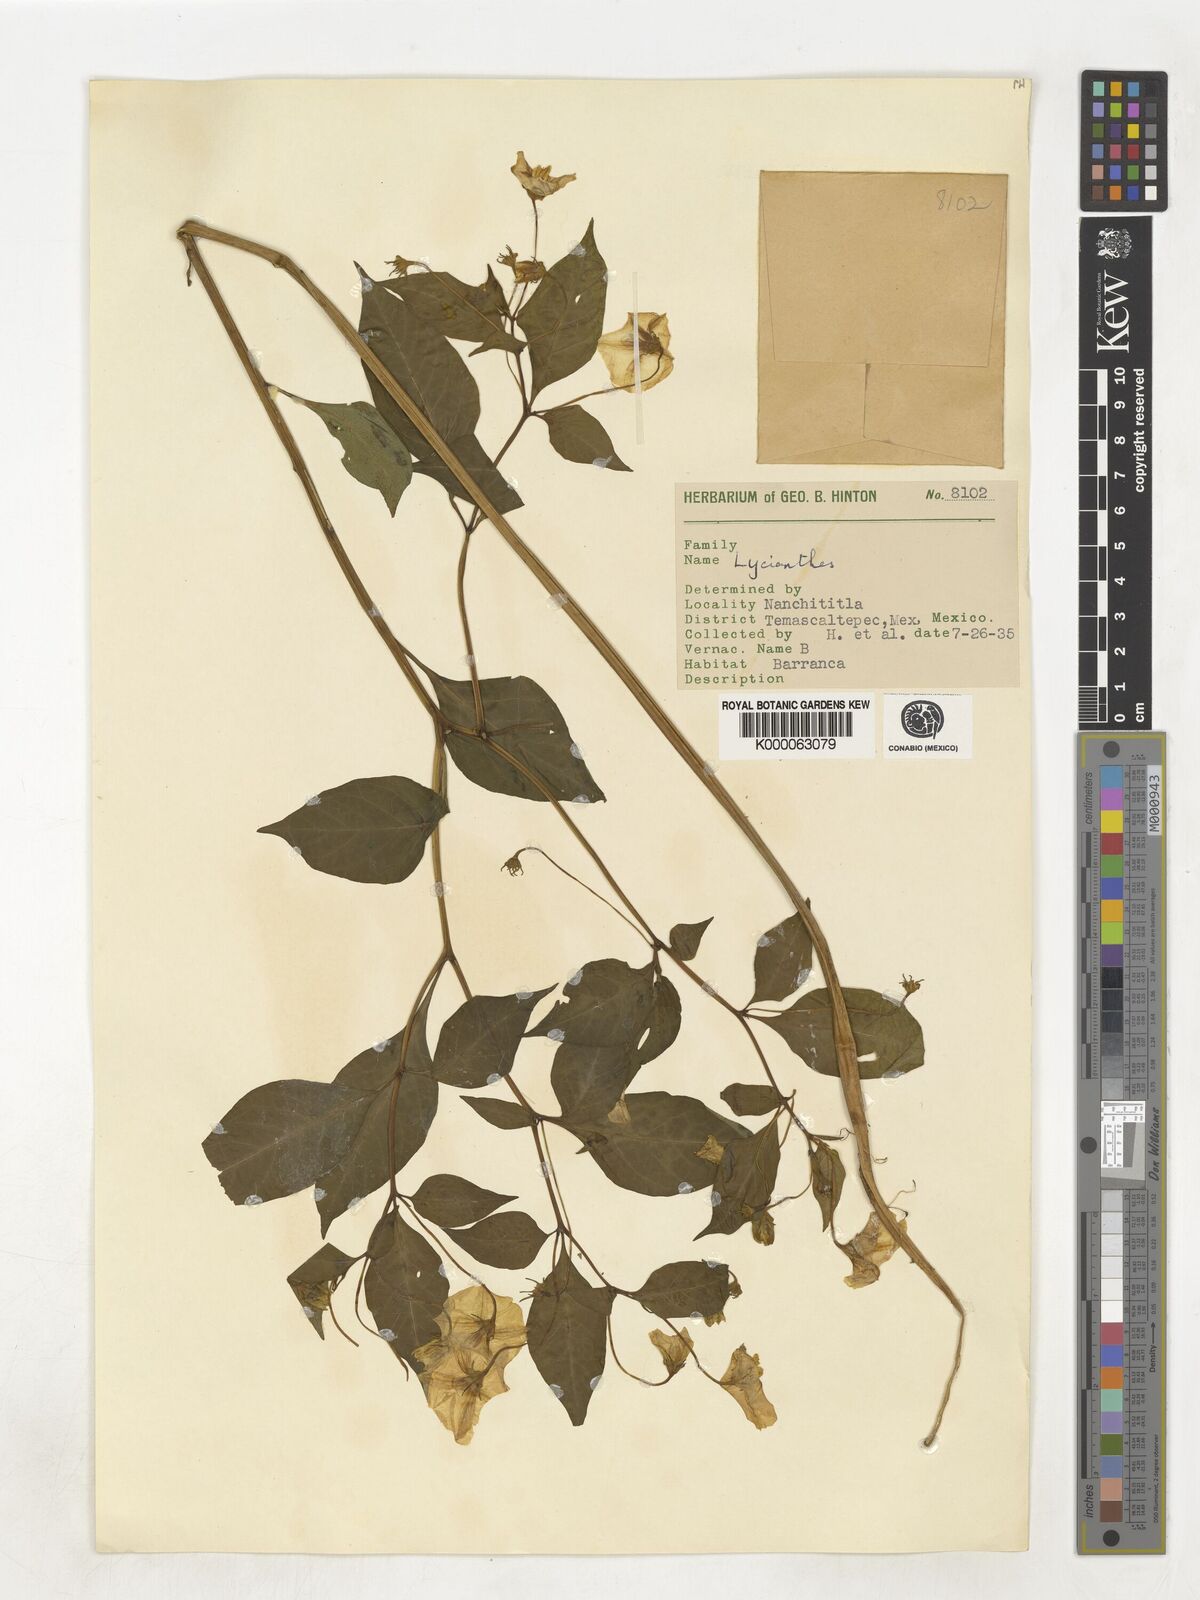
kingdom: Plantae
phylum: Tracheophyta
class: Magnoliopsida
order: Solanales
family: Solanaceae
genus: Lycianthes
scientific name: Lycianthes
